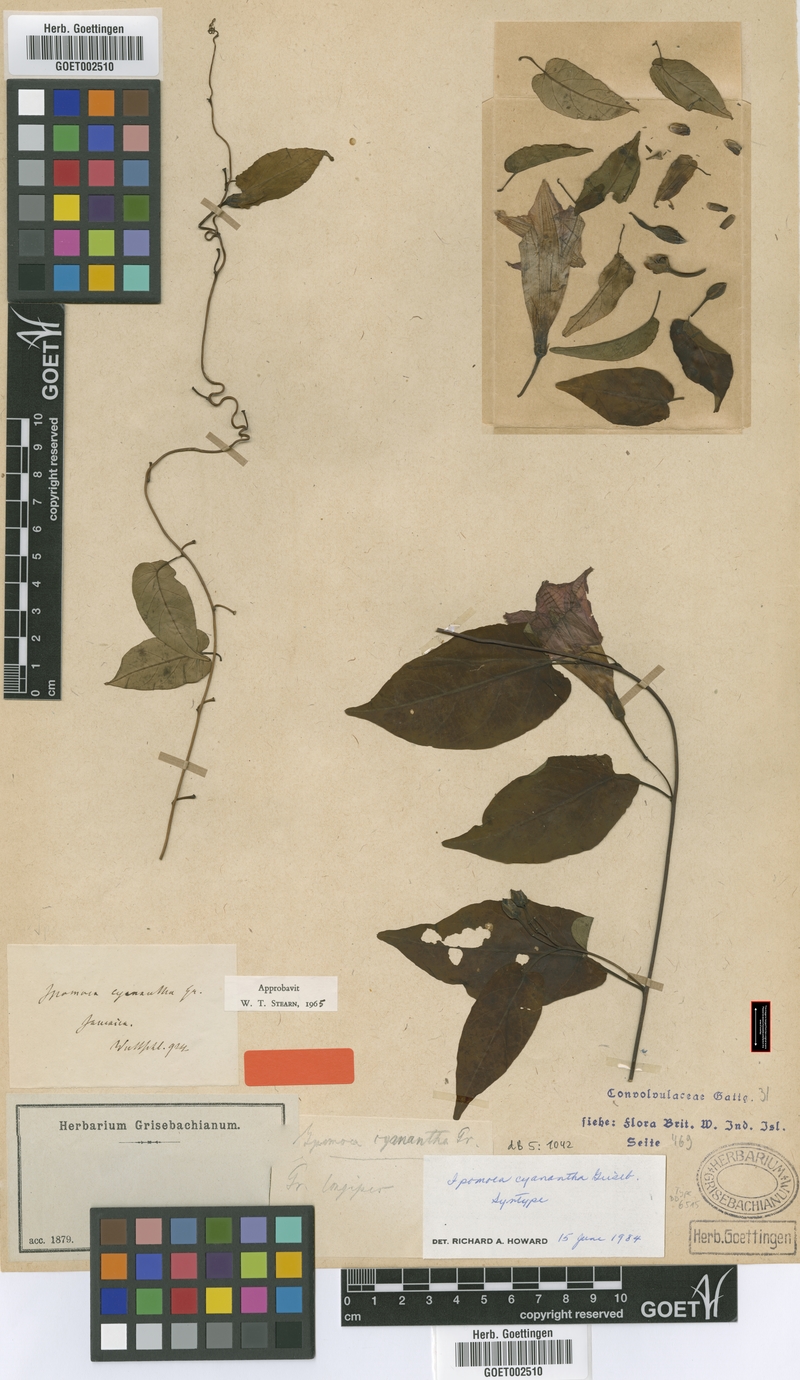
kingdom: Plantae
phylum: Tracheophyta
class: Magnoliopsida
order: Solanales
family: Convolvulaceae
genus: Ipomoea
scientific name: Ipomoea lindenii
